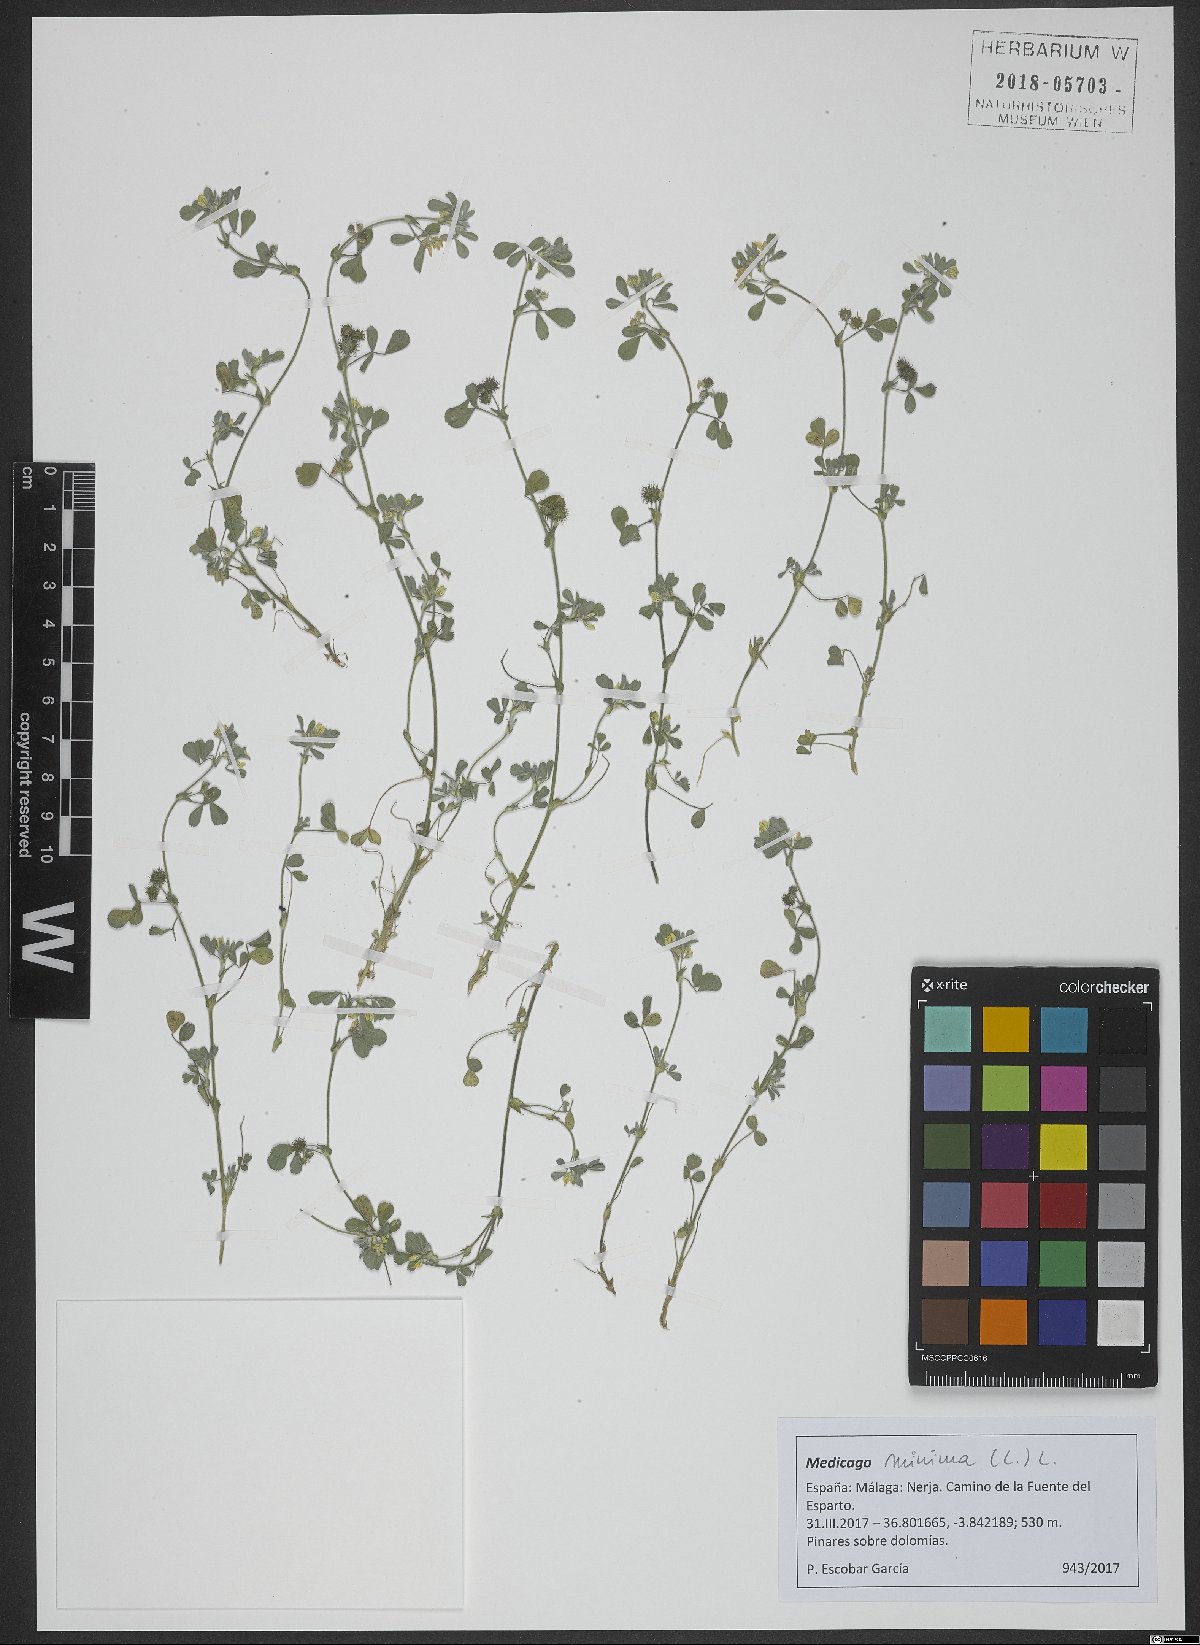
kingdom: Plantae
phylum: Tracheophyta
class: Magnoliopsida
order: Fabales
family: Fabaceae
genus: Medicago
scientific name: Medicago minima
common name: Little bur-clover
